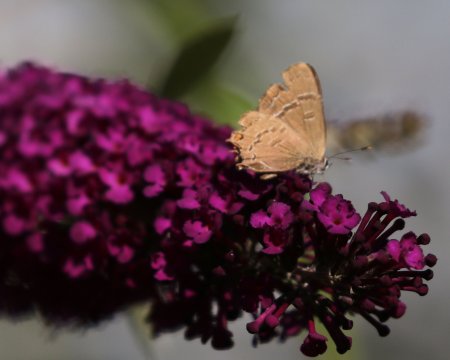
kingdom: Animalia
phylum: Arthropoda
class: Insecta
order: Lepidoptera
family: Lycaenidae
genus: Satyrium
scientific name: Satyrium calanus
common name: Banded Hairstreak
